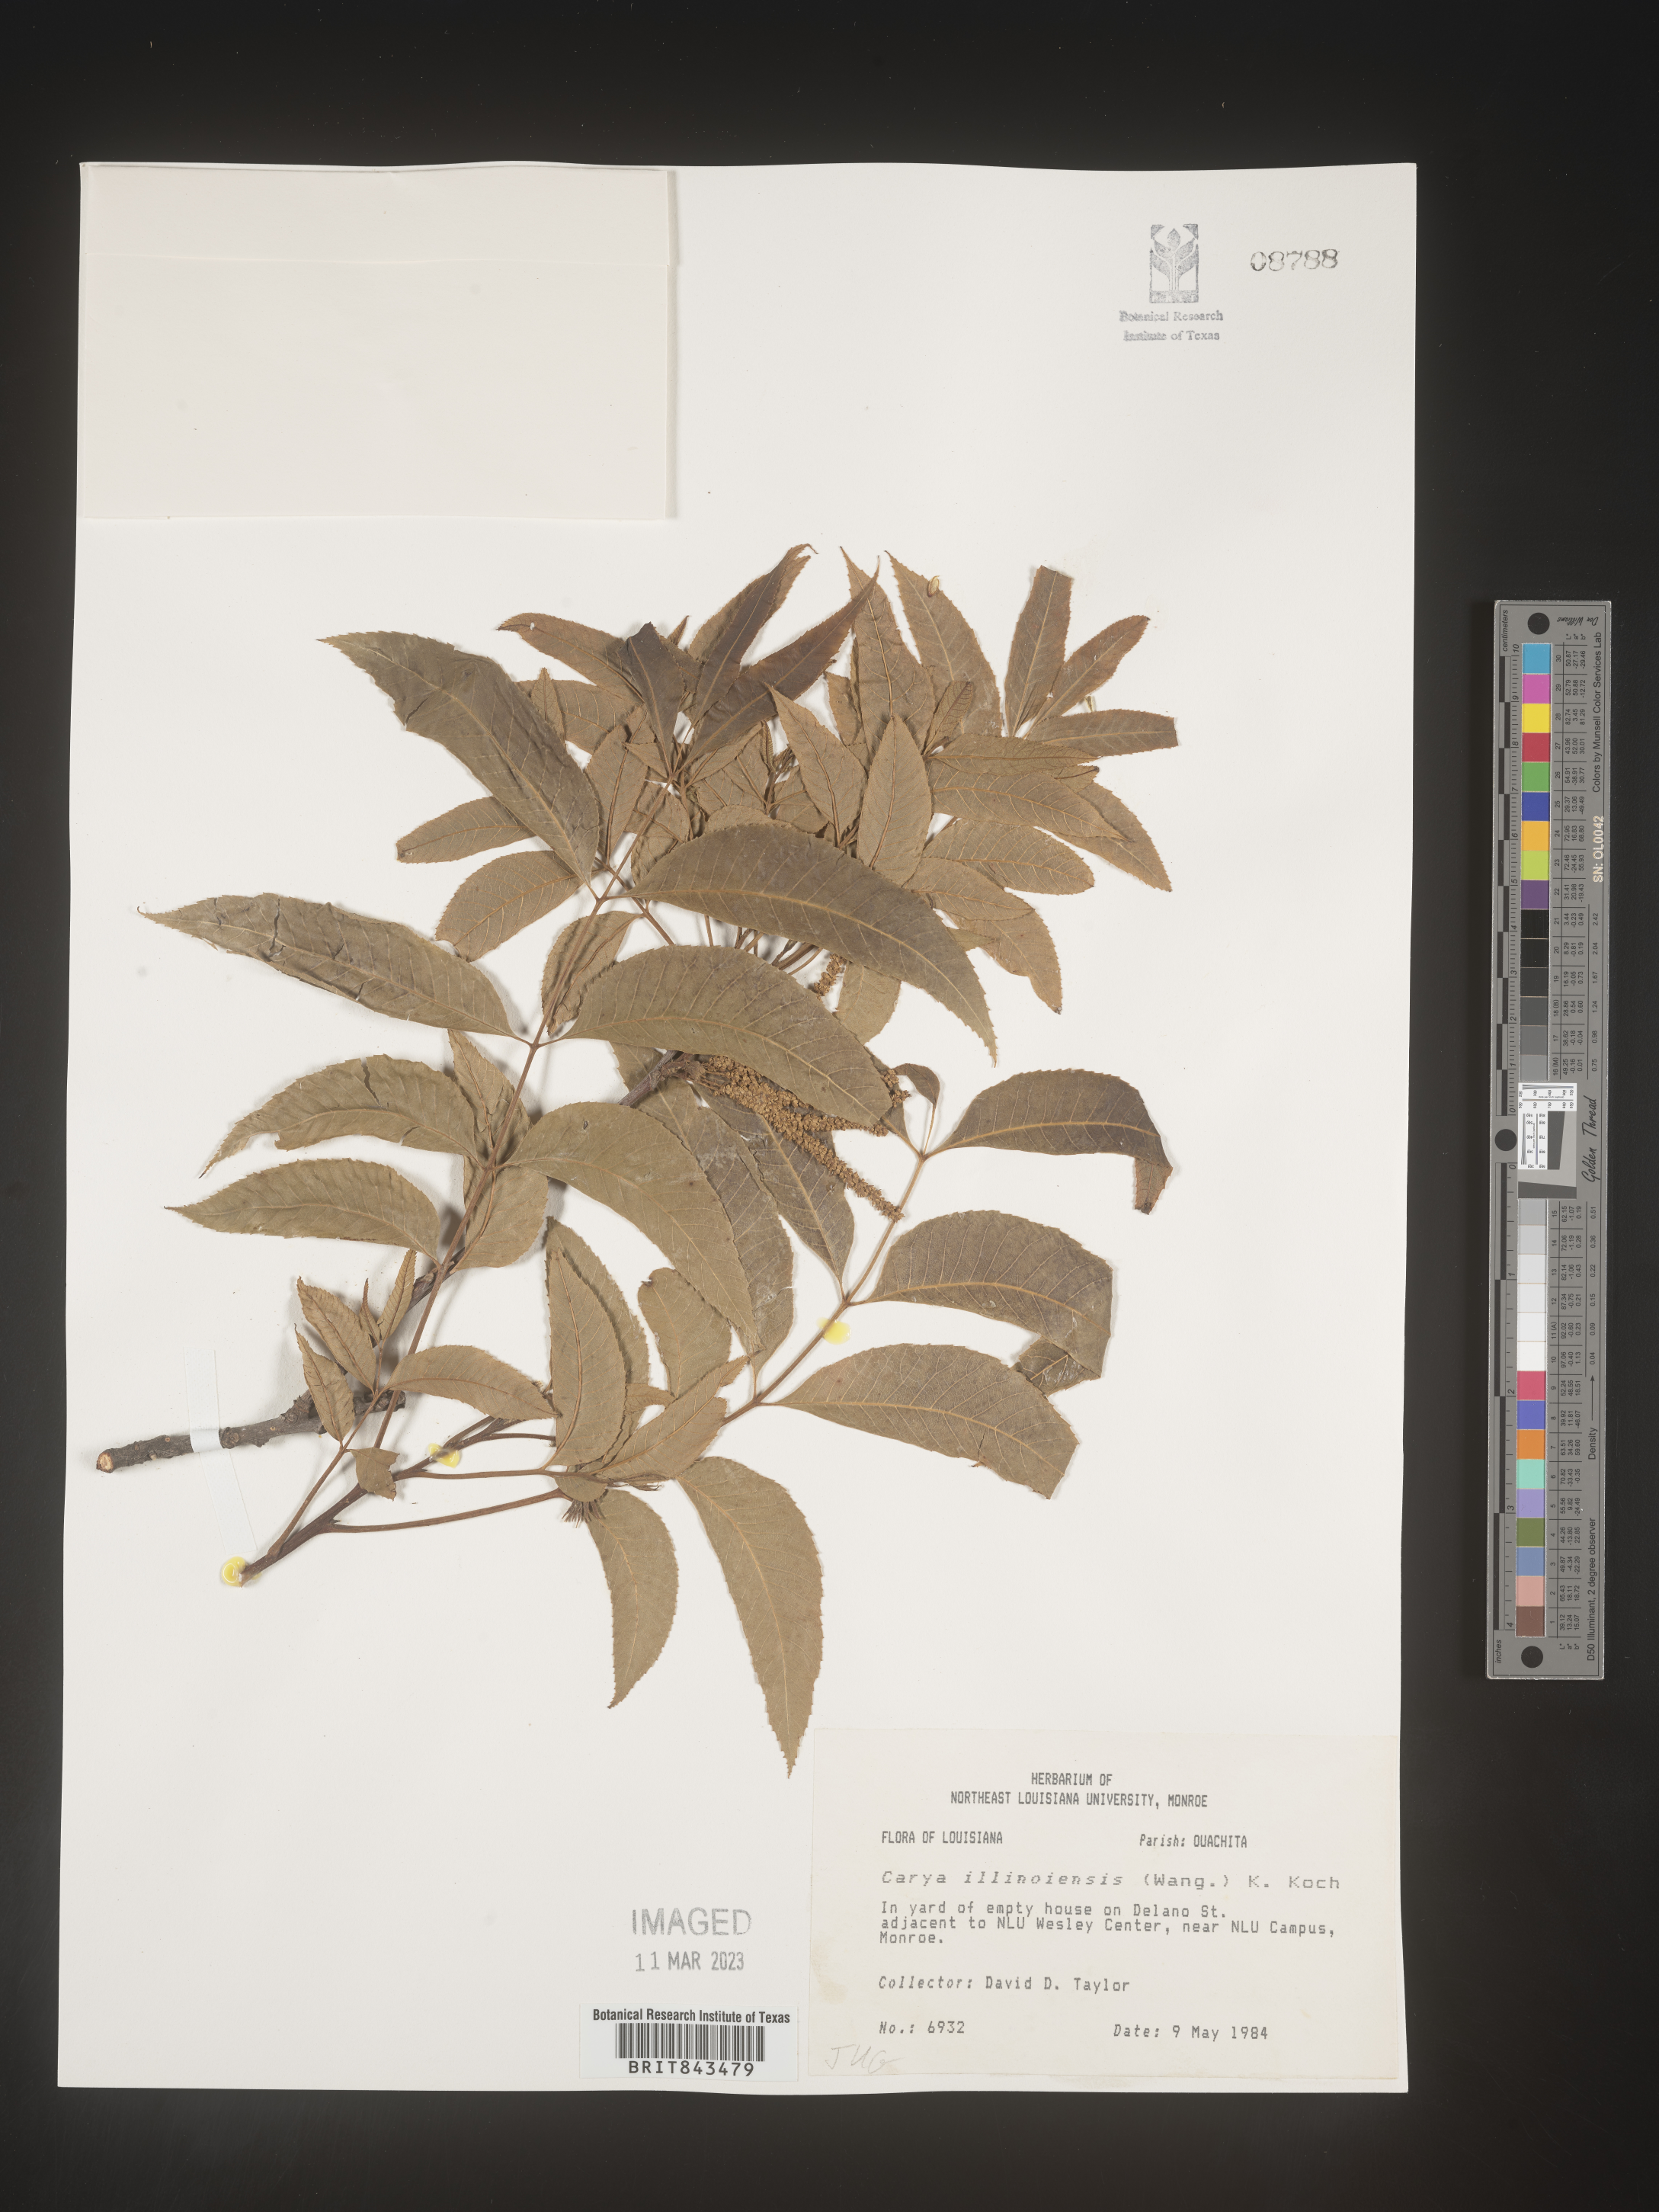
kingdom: Plantae
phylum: Tracheophyta
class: Magnoliopsida
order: Fagales
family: Juglandaceae
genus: Carya
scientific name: Carya illinoinensis
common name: Pecan
